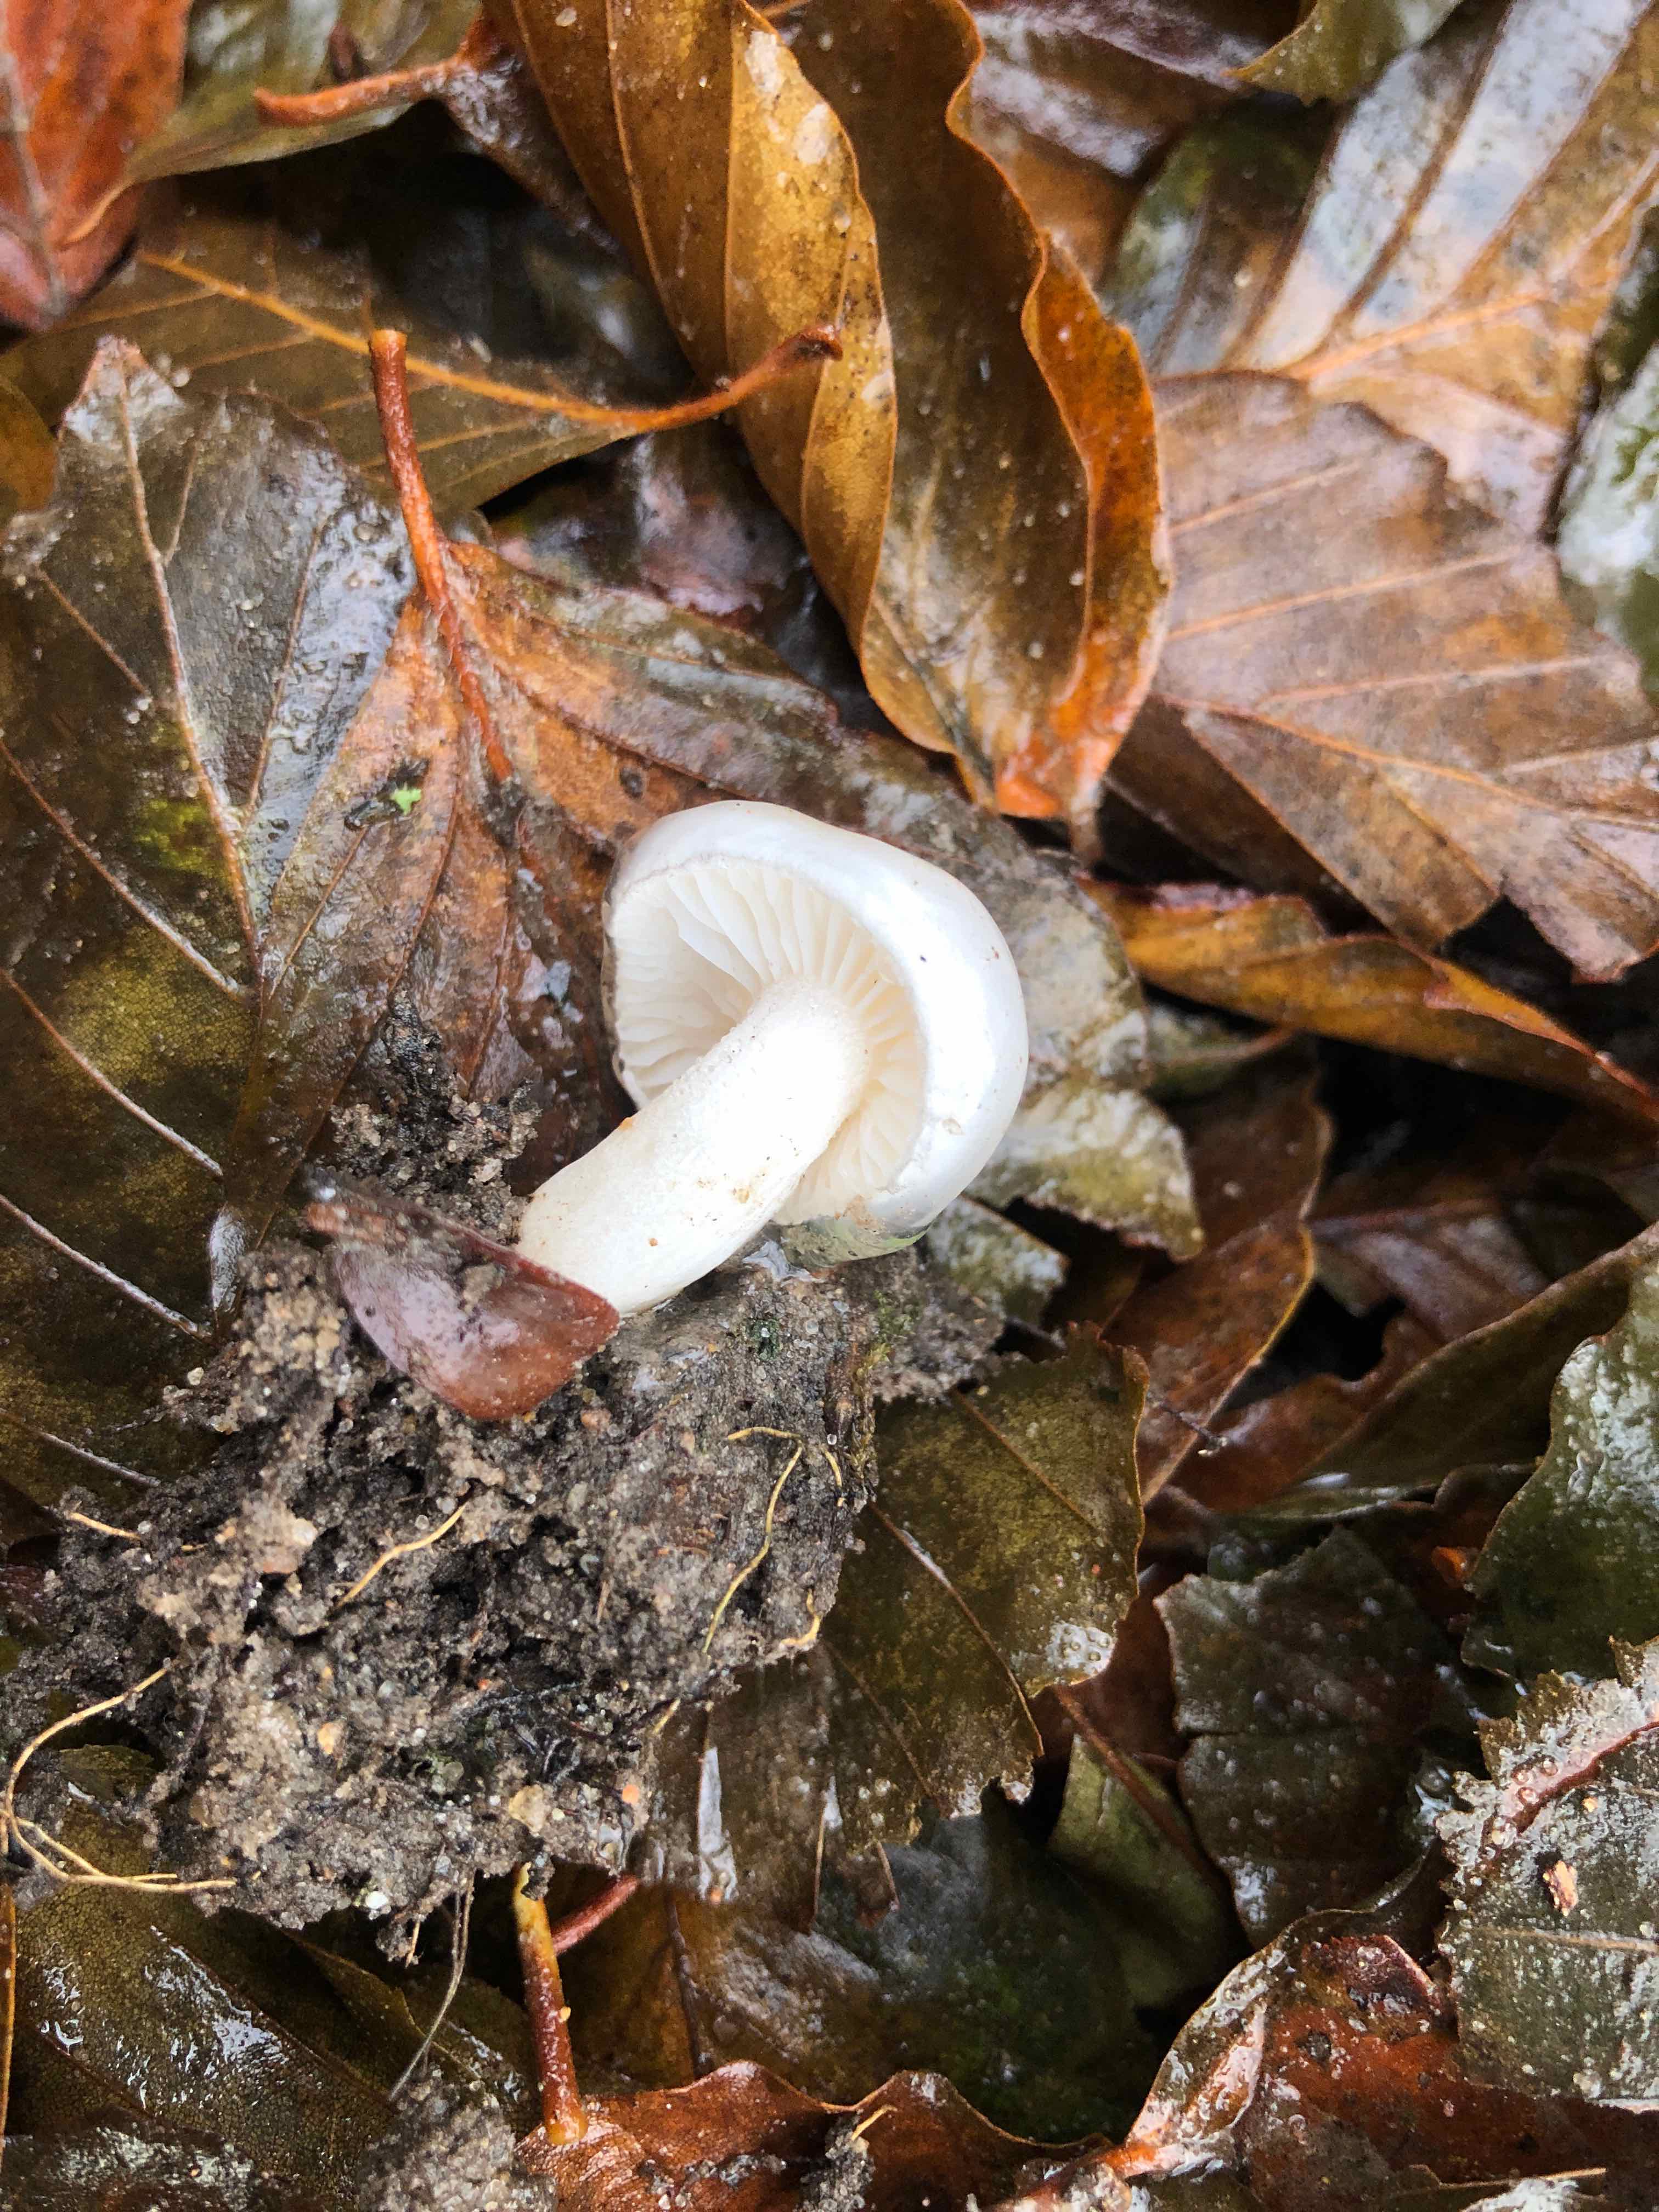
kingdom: Fungi
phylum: Basidiomycota
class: Agaricomycetes
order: Agaricales
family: Hygrophoraceae
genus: Hygrophorus
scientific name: Hygrophorus eburneus
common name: elfenbens-sneglehat
